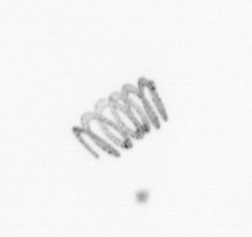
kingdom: Chromista
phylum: Ochrophyta
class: Bacillariophyceae
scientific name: Bacillariophyceae
